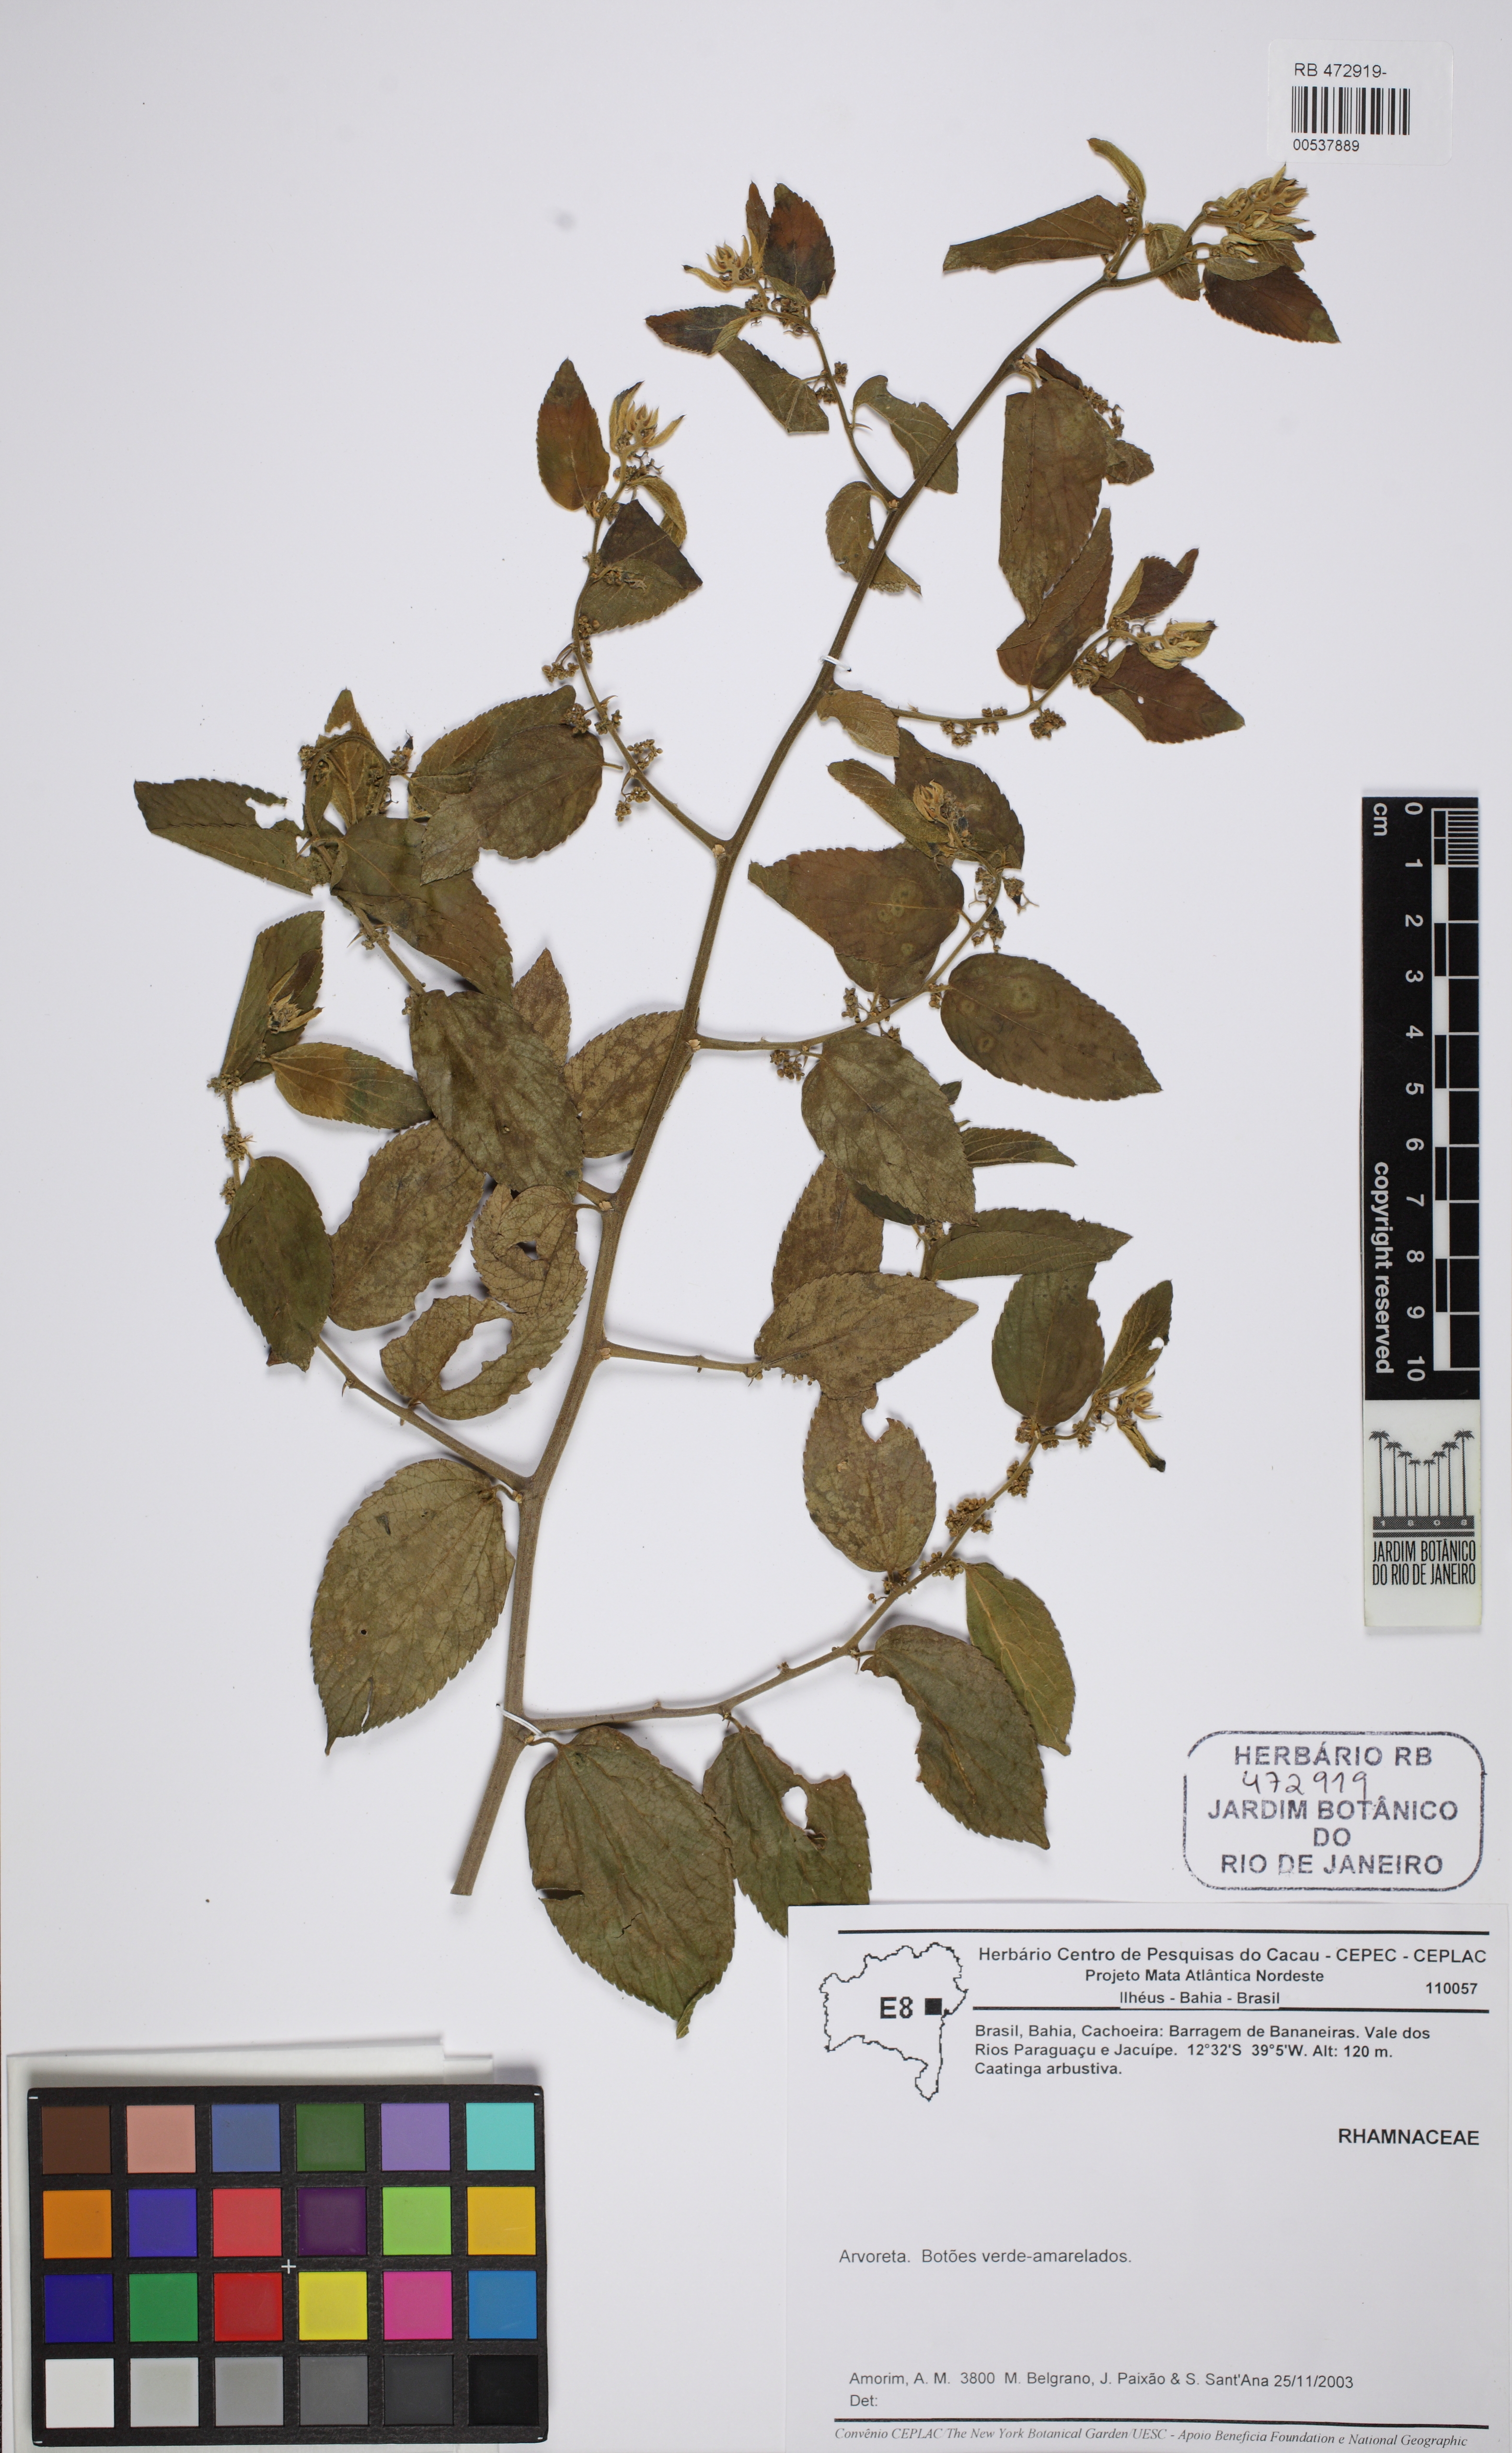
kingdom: Plantae
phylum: Tracheophyta
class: Magnoliopsida
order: Rosales
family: Rhamnaceae
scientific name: Rhamnaceae
